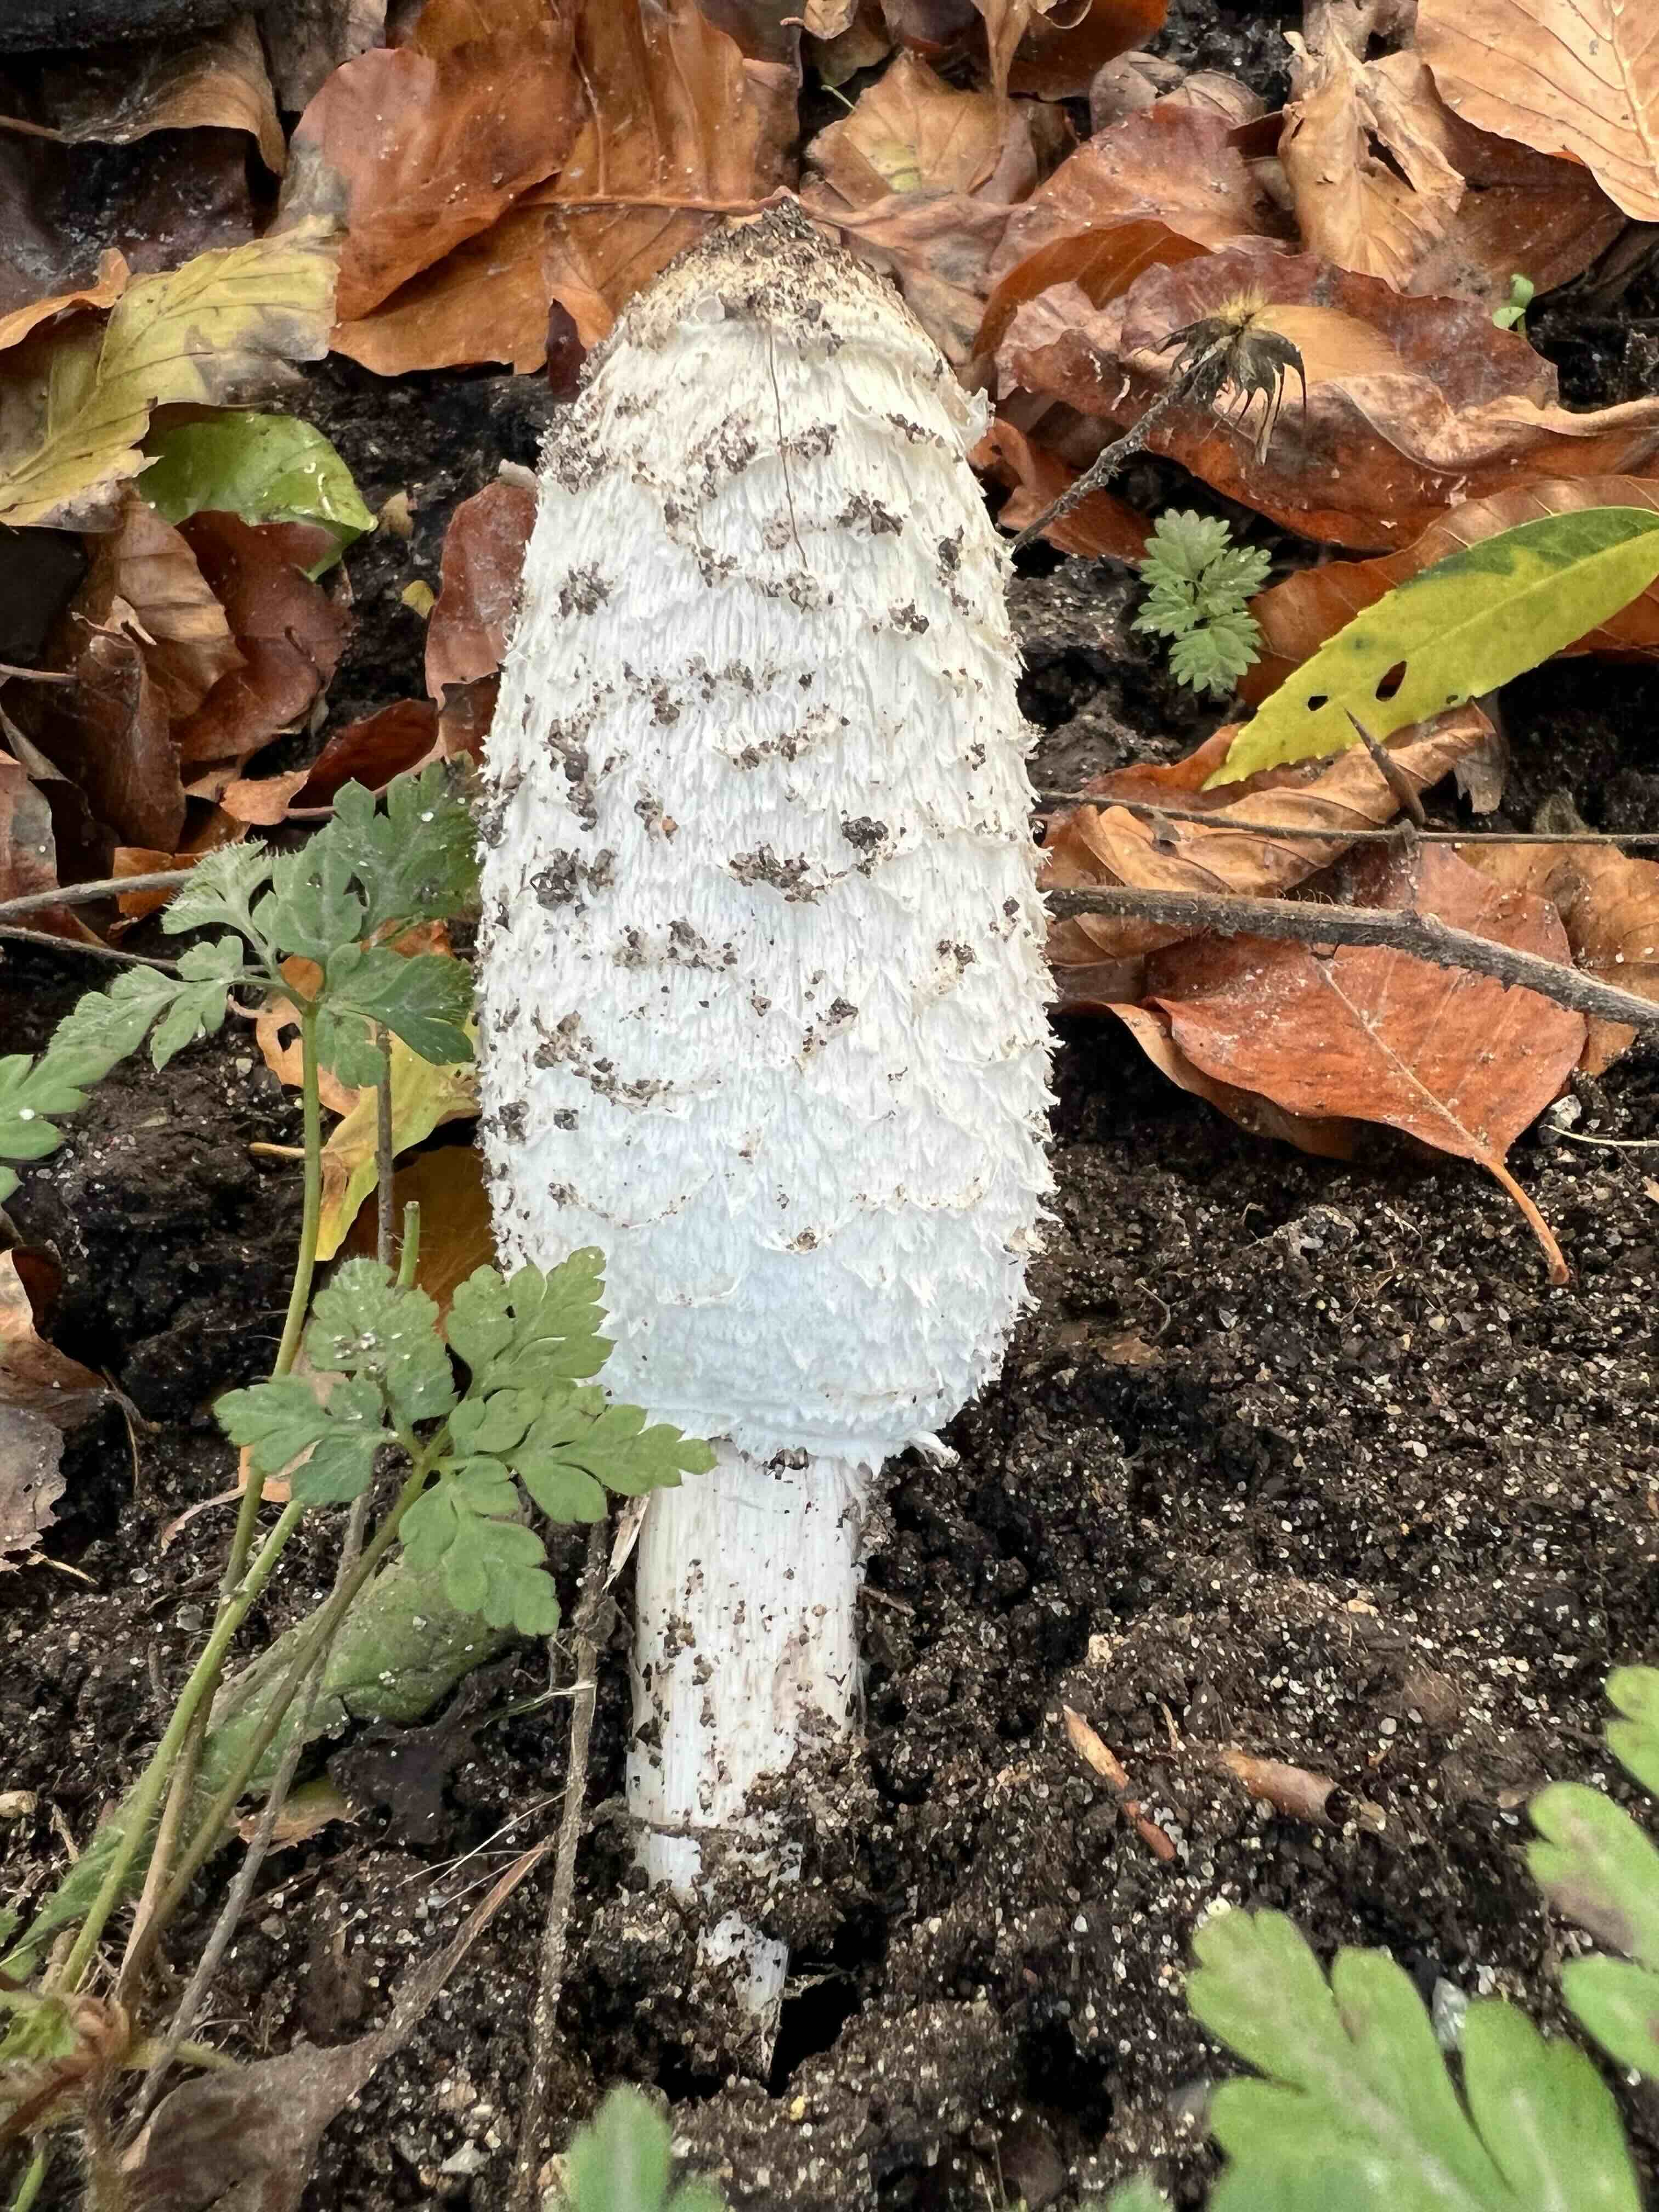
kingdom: Fungi
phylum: Basidiomycota
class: Agaricomycetes
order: Agaricales
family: Agaricaceae
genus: Coprinus
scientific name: Coprinus comatus
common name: stor parykhat
